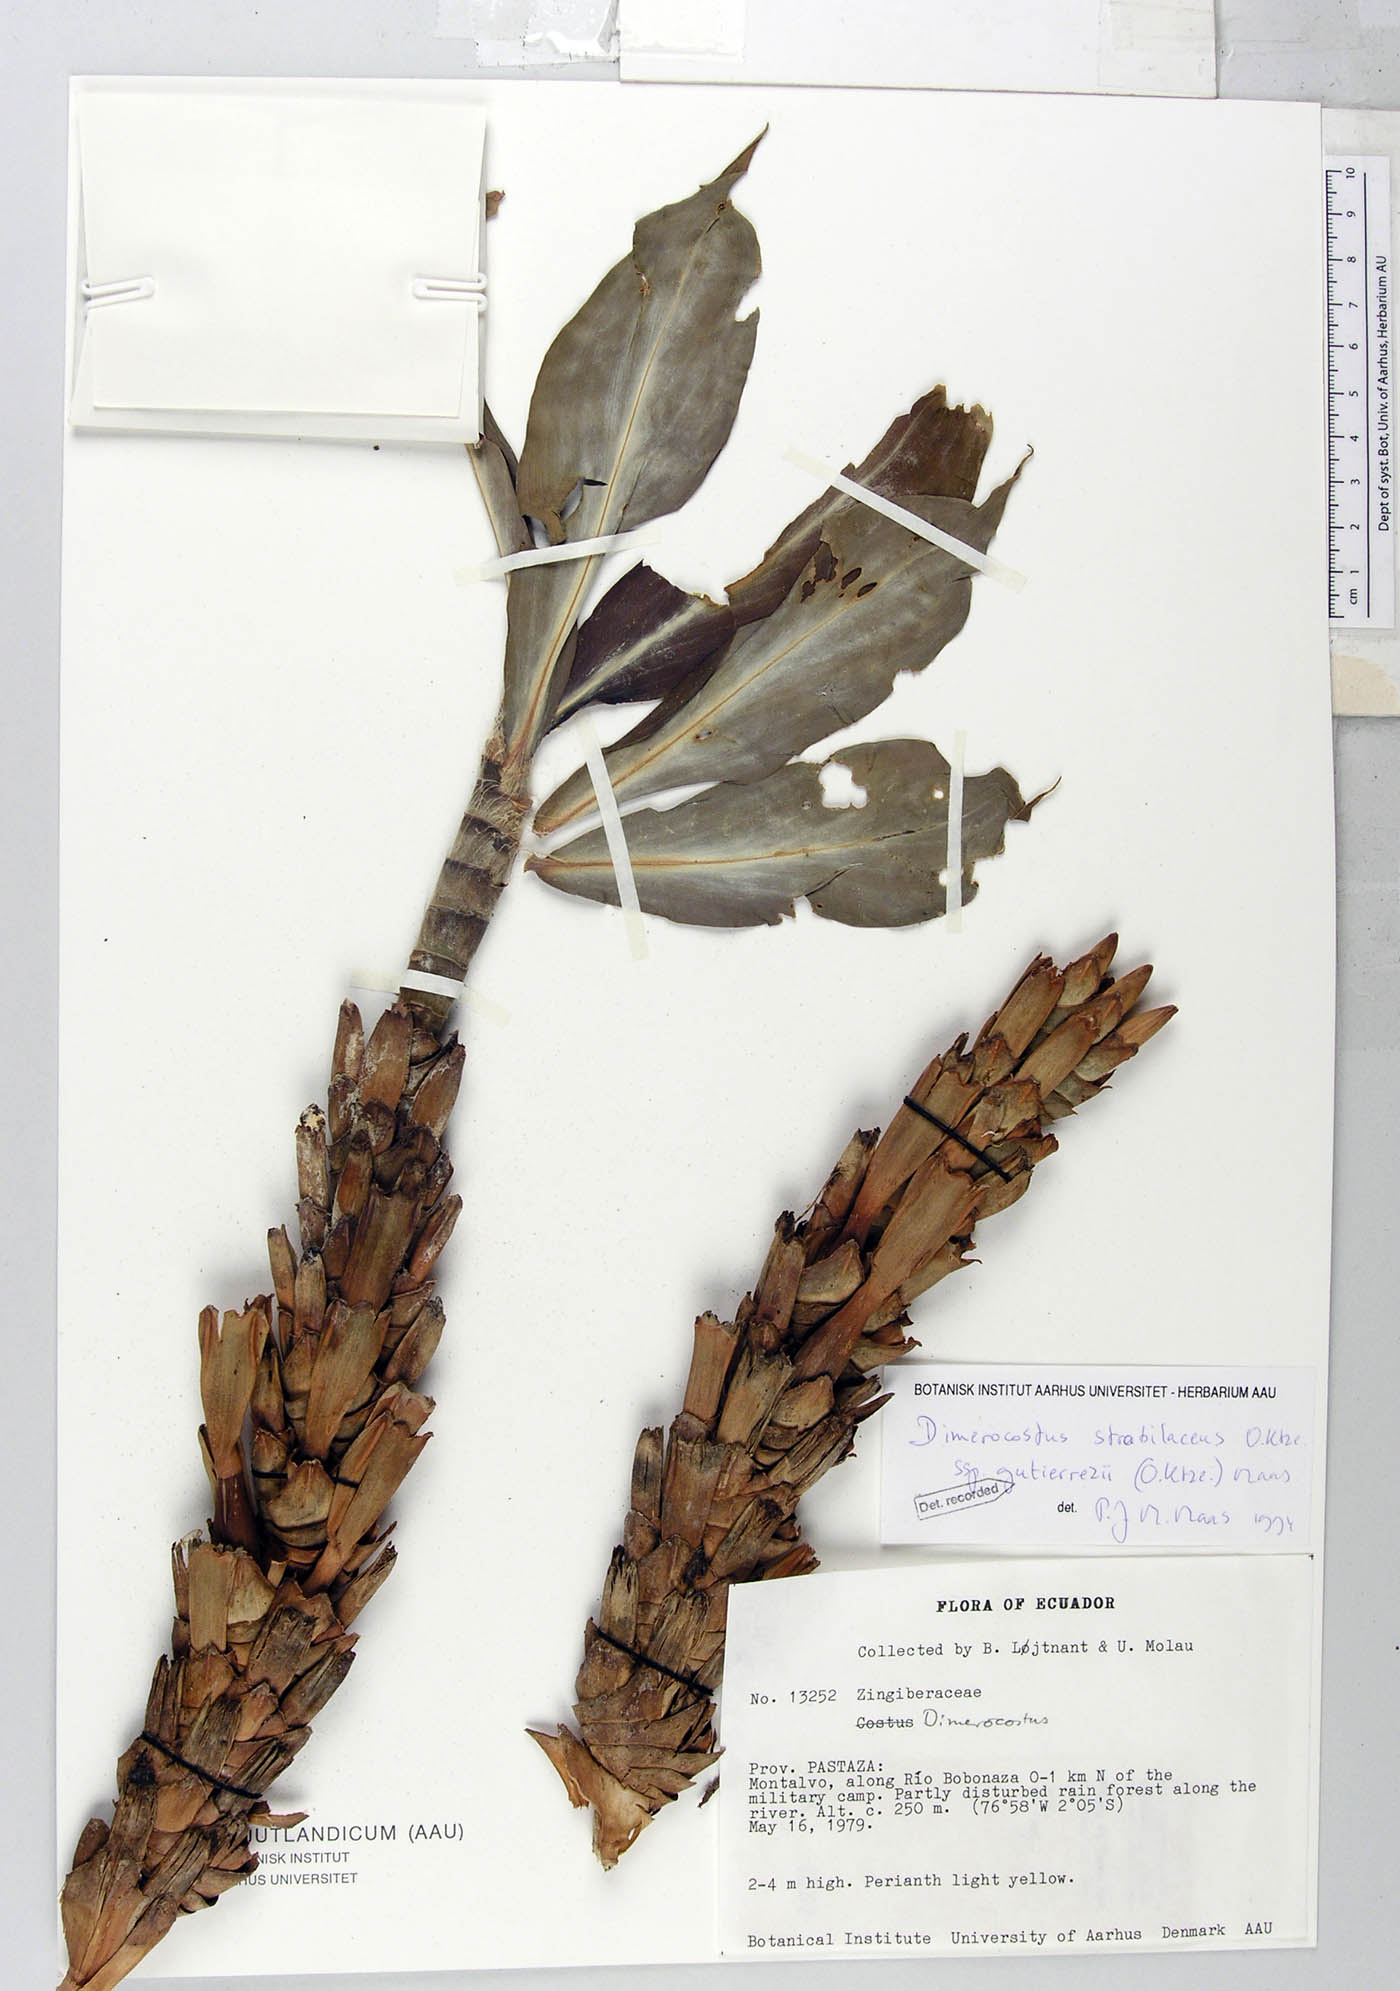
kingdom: Plantae
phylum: Tracheophyta
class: Liliopsida
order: Zingiberales
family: Costaceae
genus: Dimerocostus
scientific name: Dimerocostus strobilaceus
